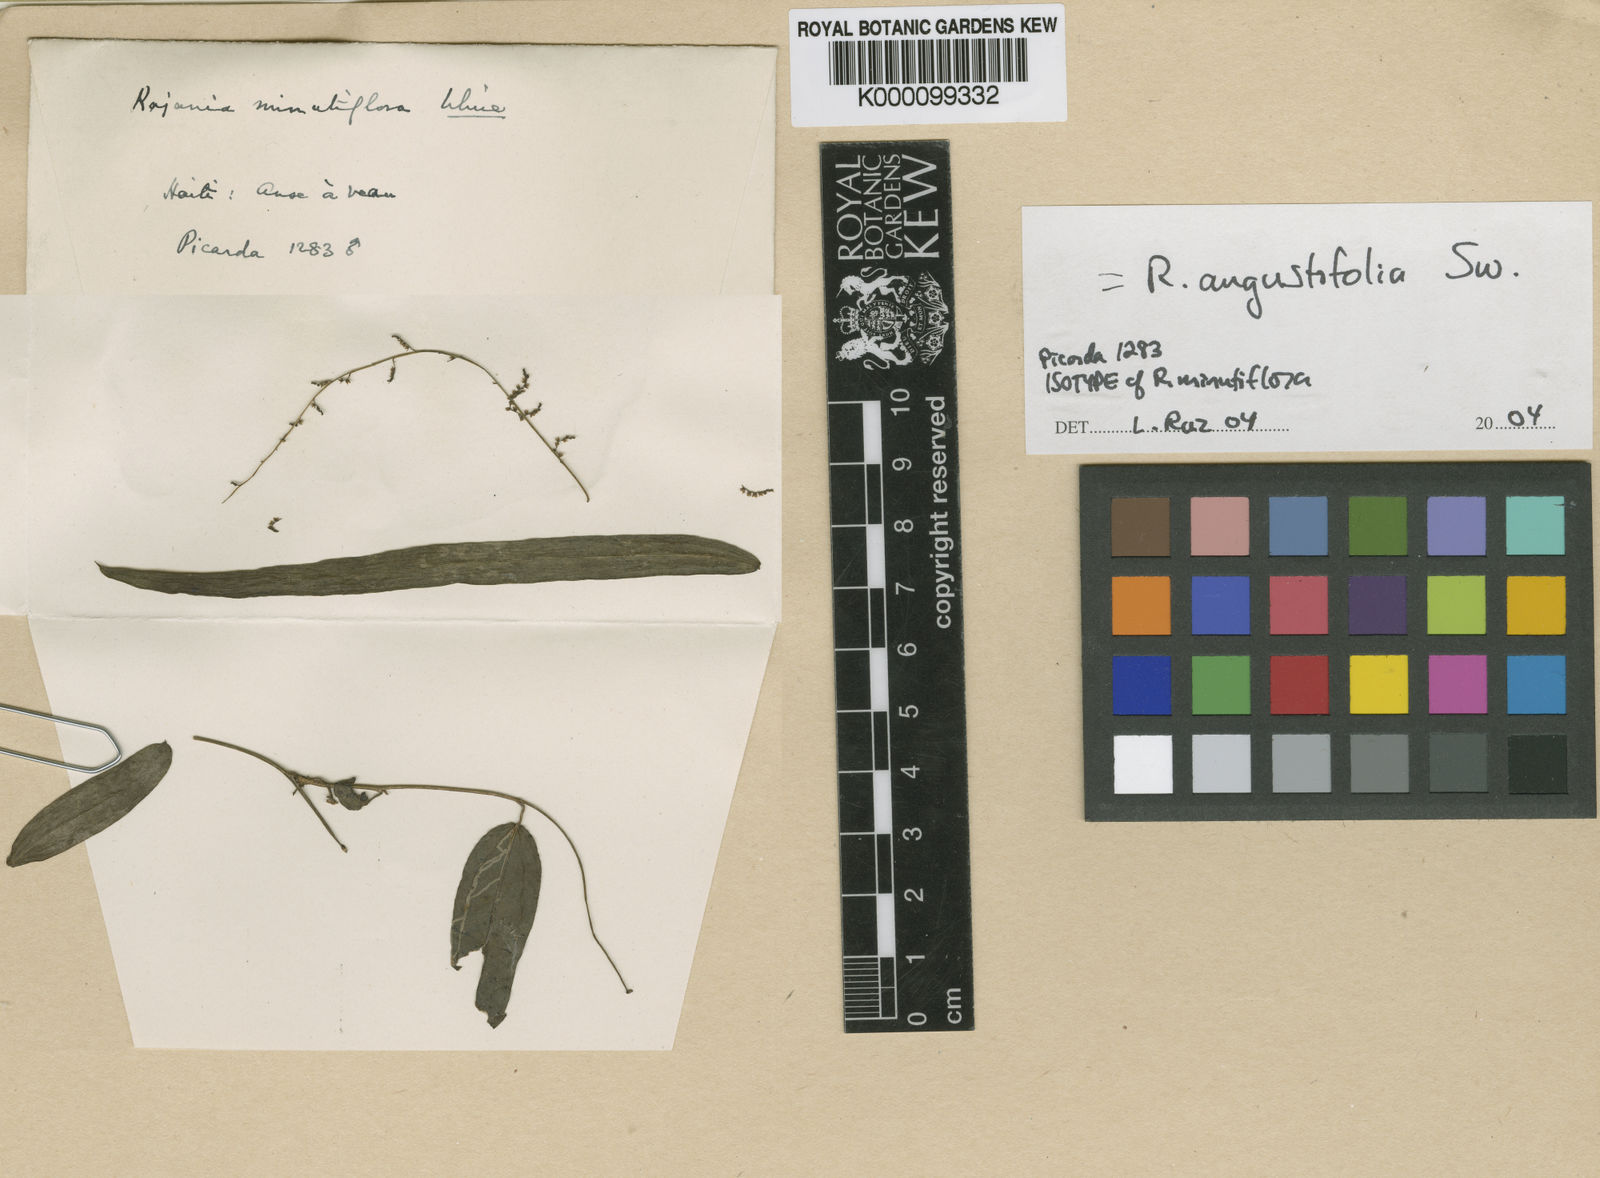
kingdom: Plantae
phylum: Tracheophyta
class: Liliopsida
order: Dioscoreales
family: Dioscoreaceae
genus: Dioscorea
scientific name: Dioscorea minutiflora
